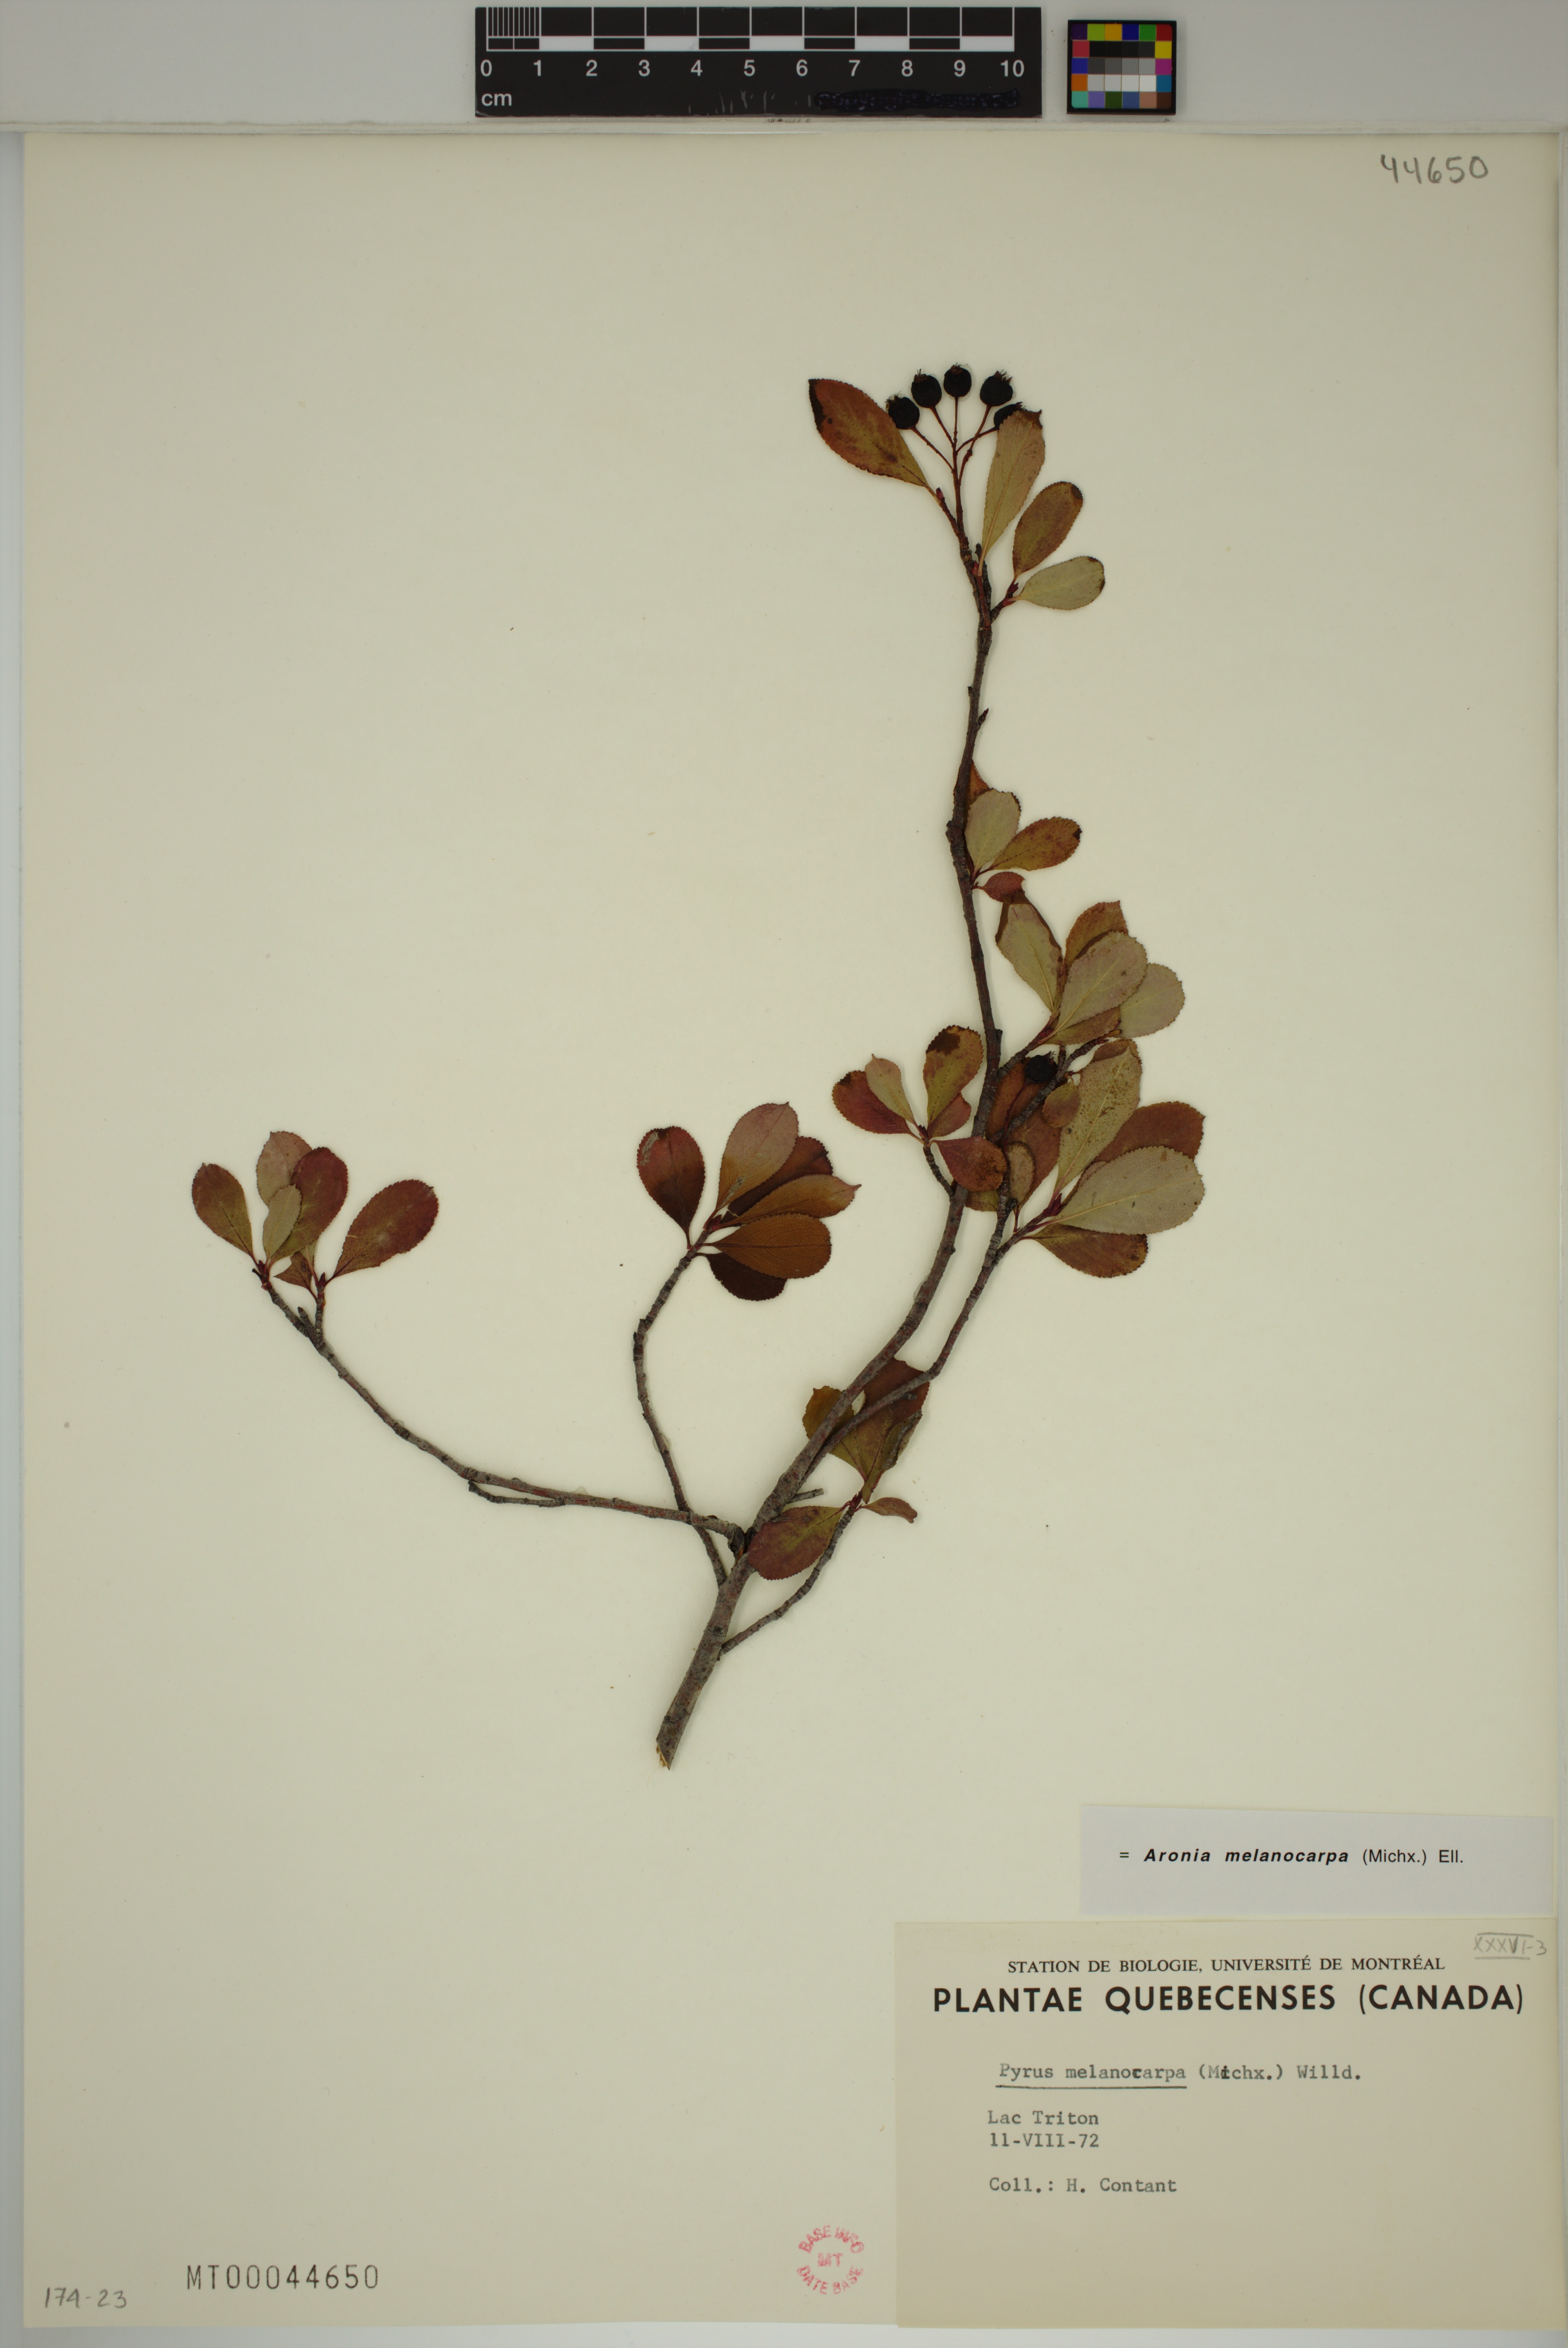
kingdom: Plantae
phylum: Tracheophyta
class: Magnoliopsida
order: Rosales
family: Rosaceae
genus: Aronia
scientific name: Aronia melanocarpa
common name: Black chokeberry
